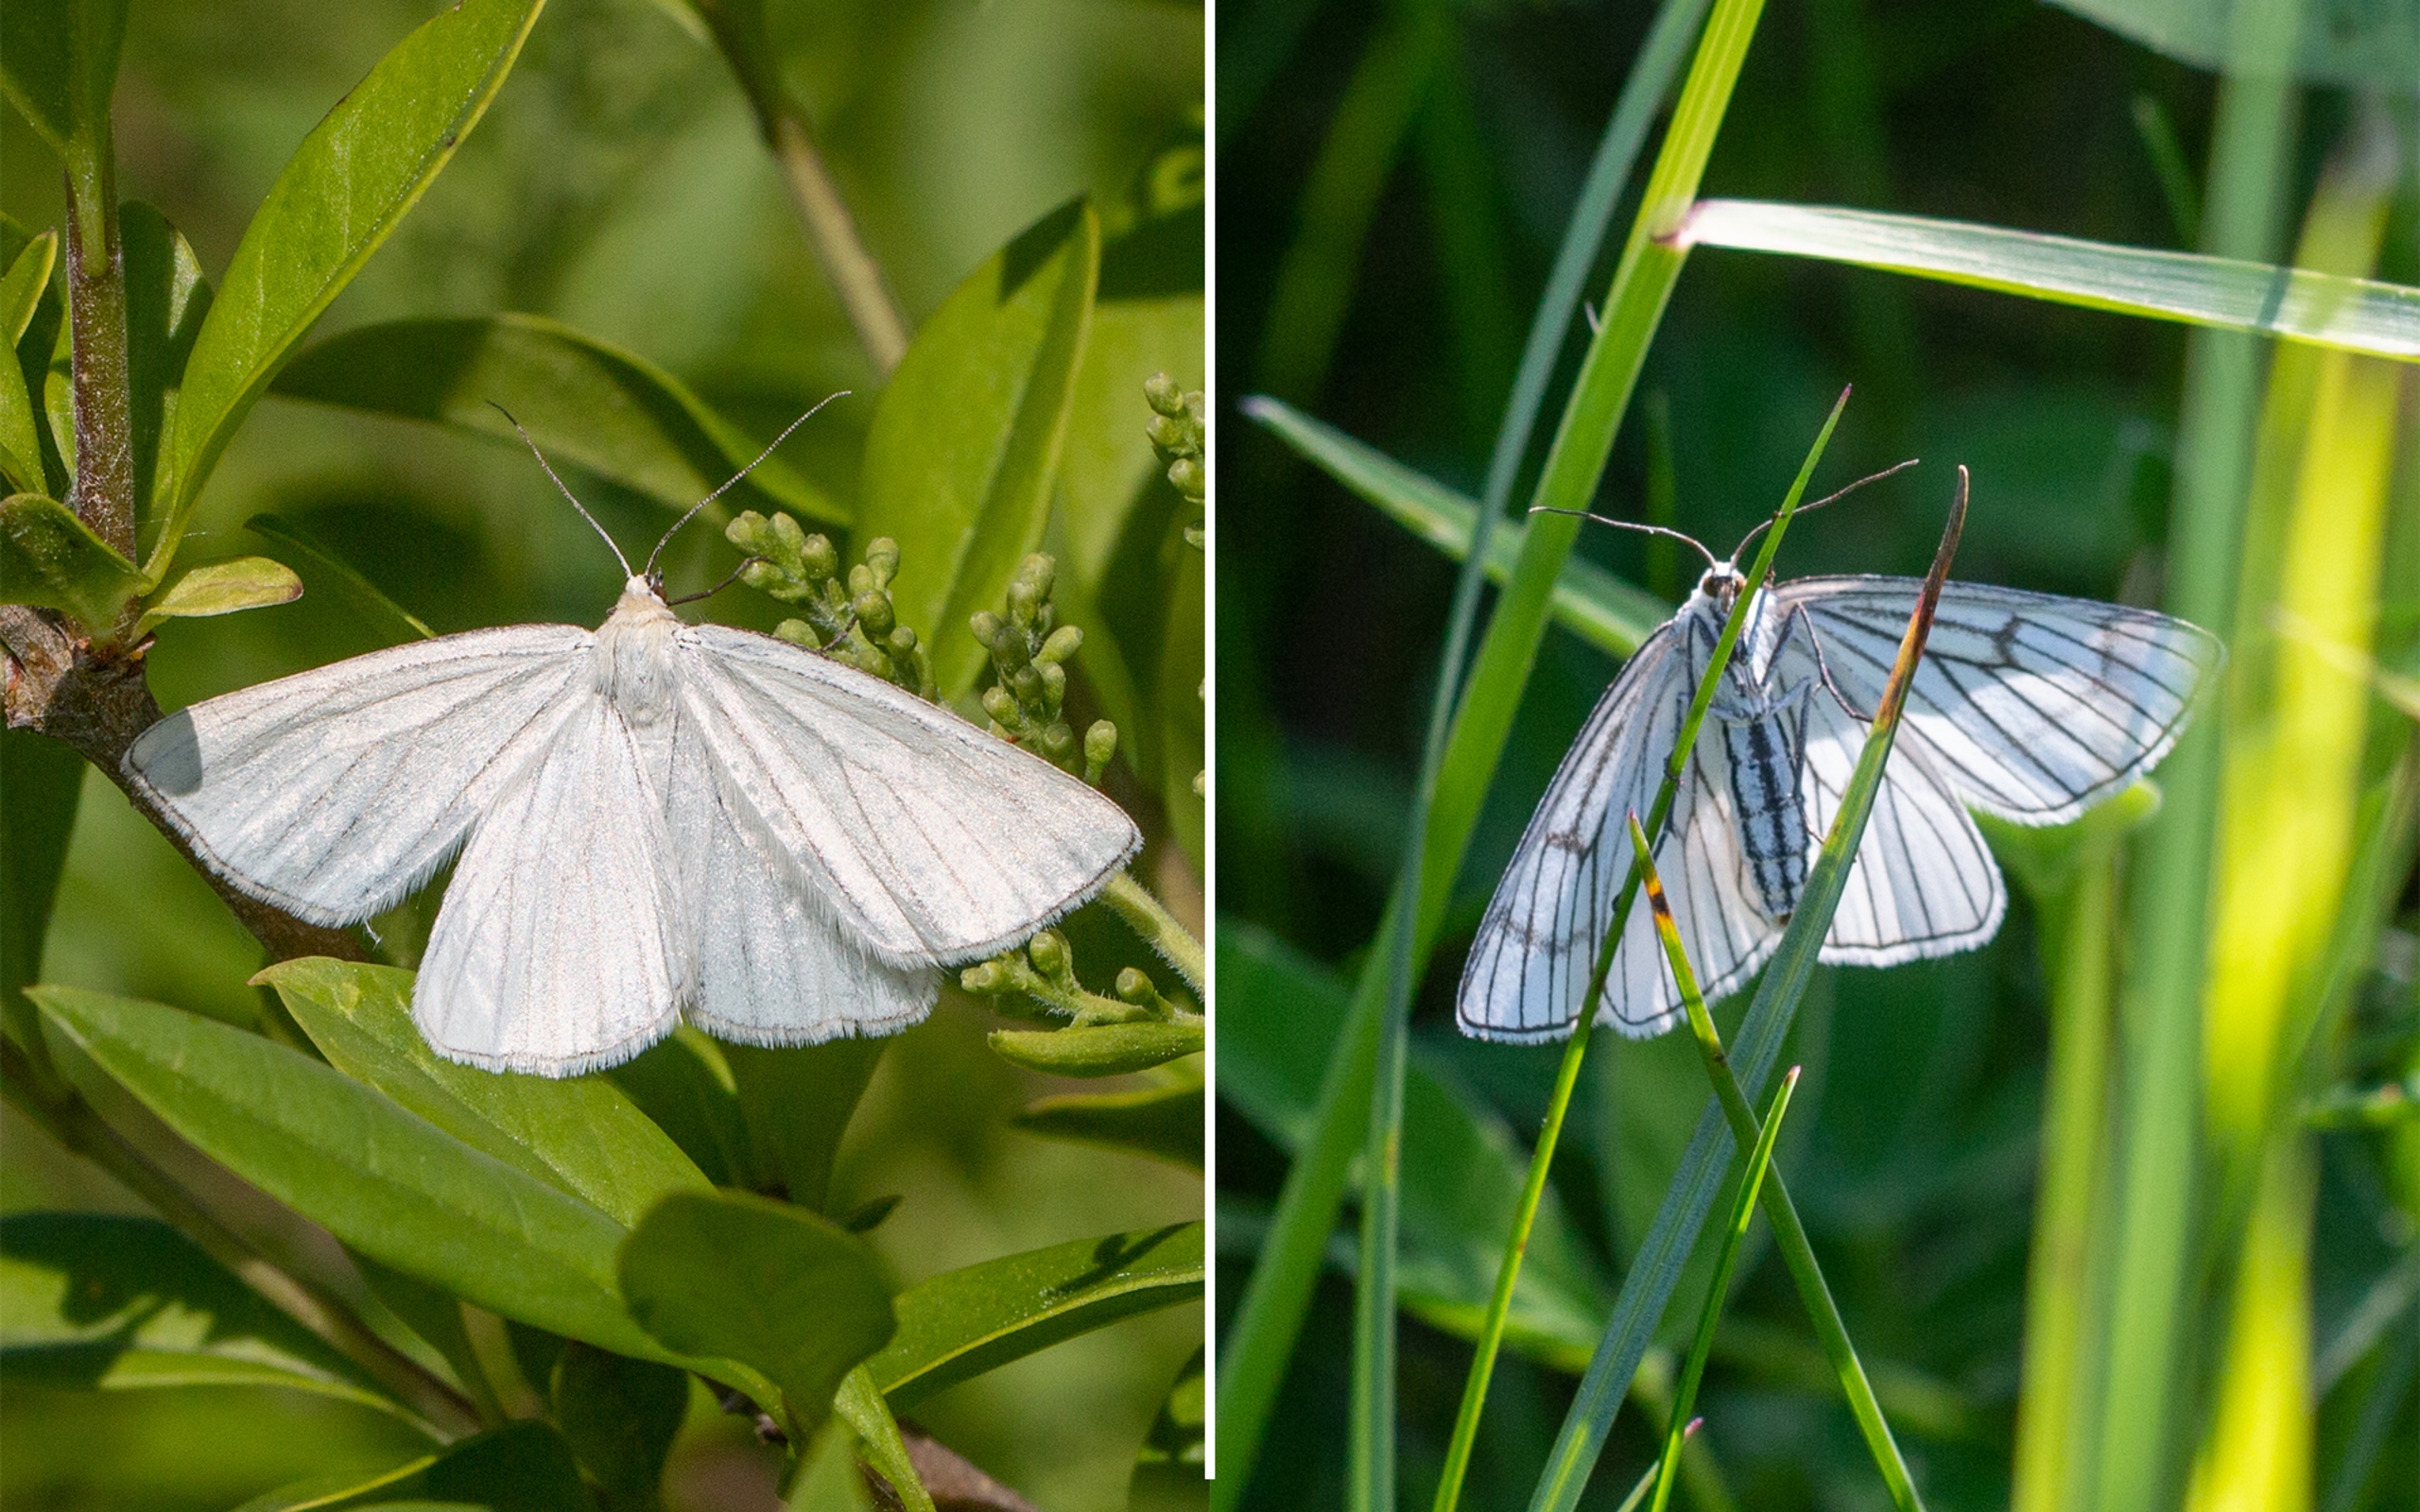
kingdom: Animalia
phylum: Arthropoda
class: Insecta
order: Lepidoptera
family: Geometridae
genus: Siona
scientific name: Siona lineata
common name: Hvidvingemåler
